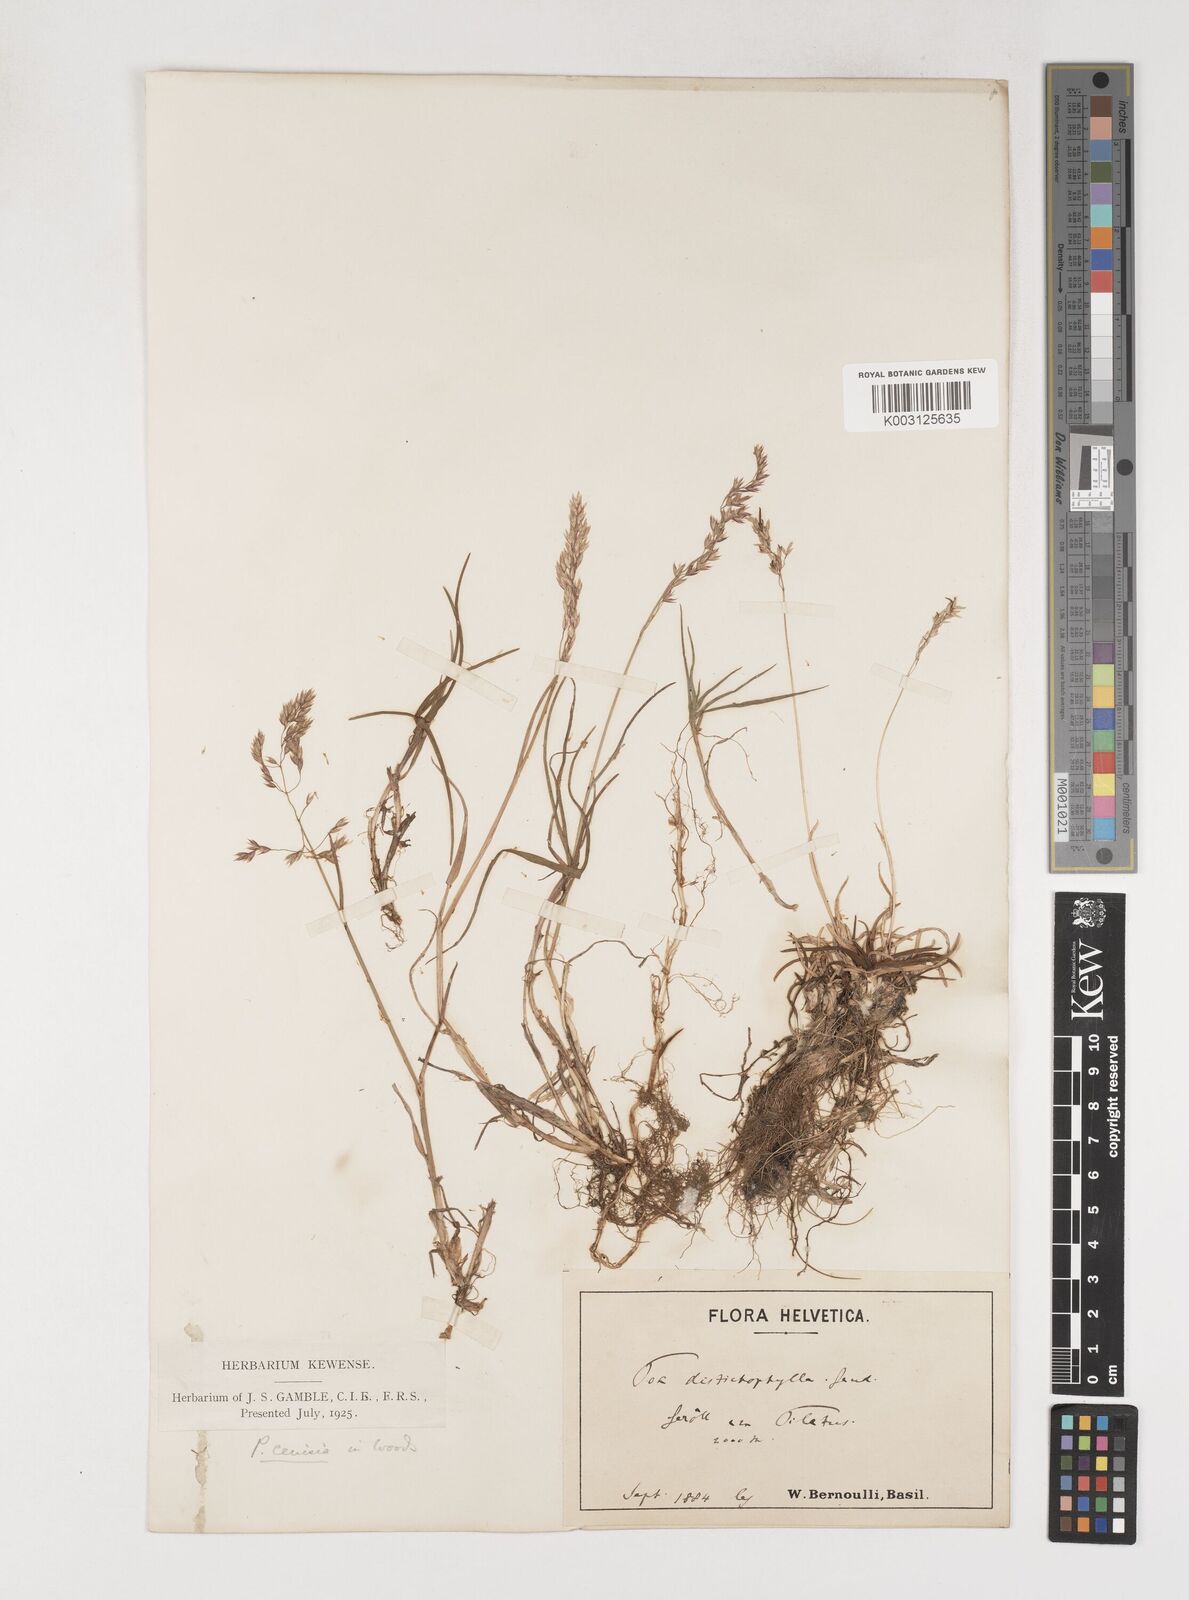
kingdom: Plantae
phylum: Tracheophyta
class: Liliopsida
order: Poales
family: Poaceae
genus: Poa
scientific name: Poa
